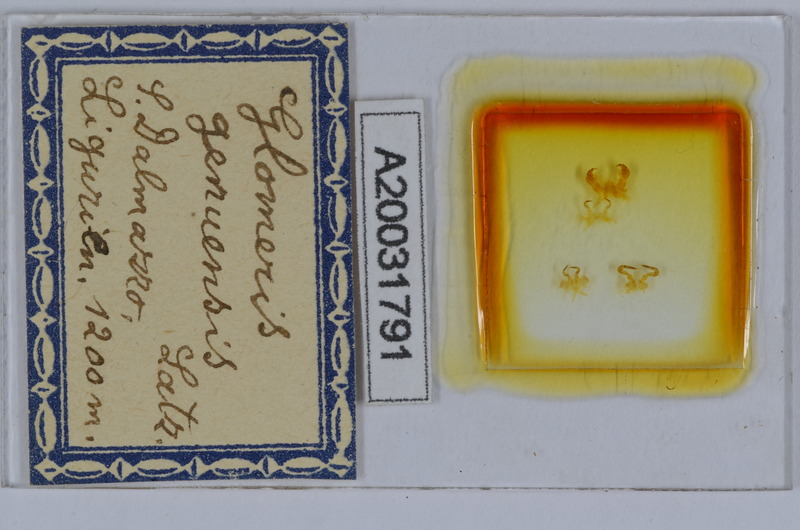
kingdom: Animalia
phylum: Arthropoda
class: Diplopoda
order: Glomerida
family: Glomeridae
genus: Glomeris
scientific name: Glomeris genuensis
